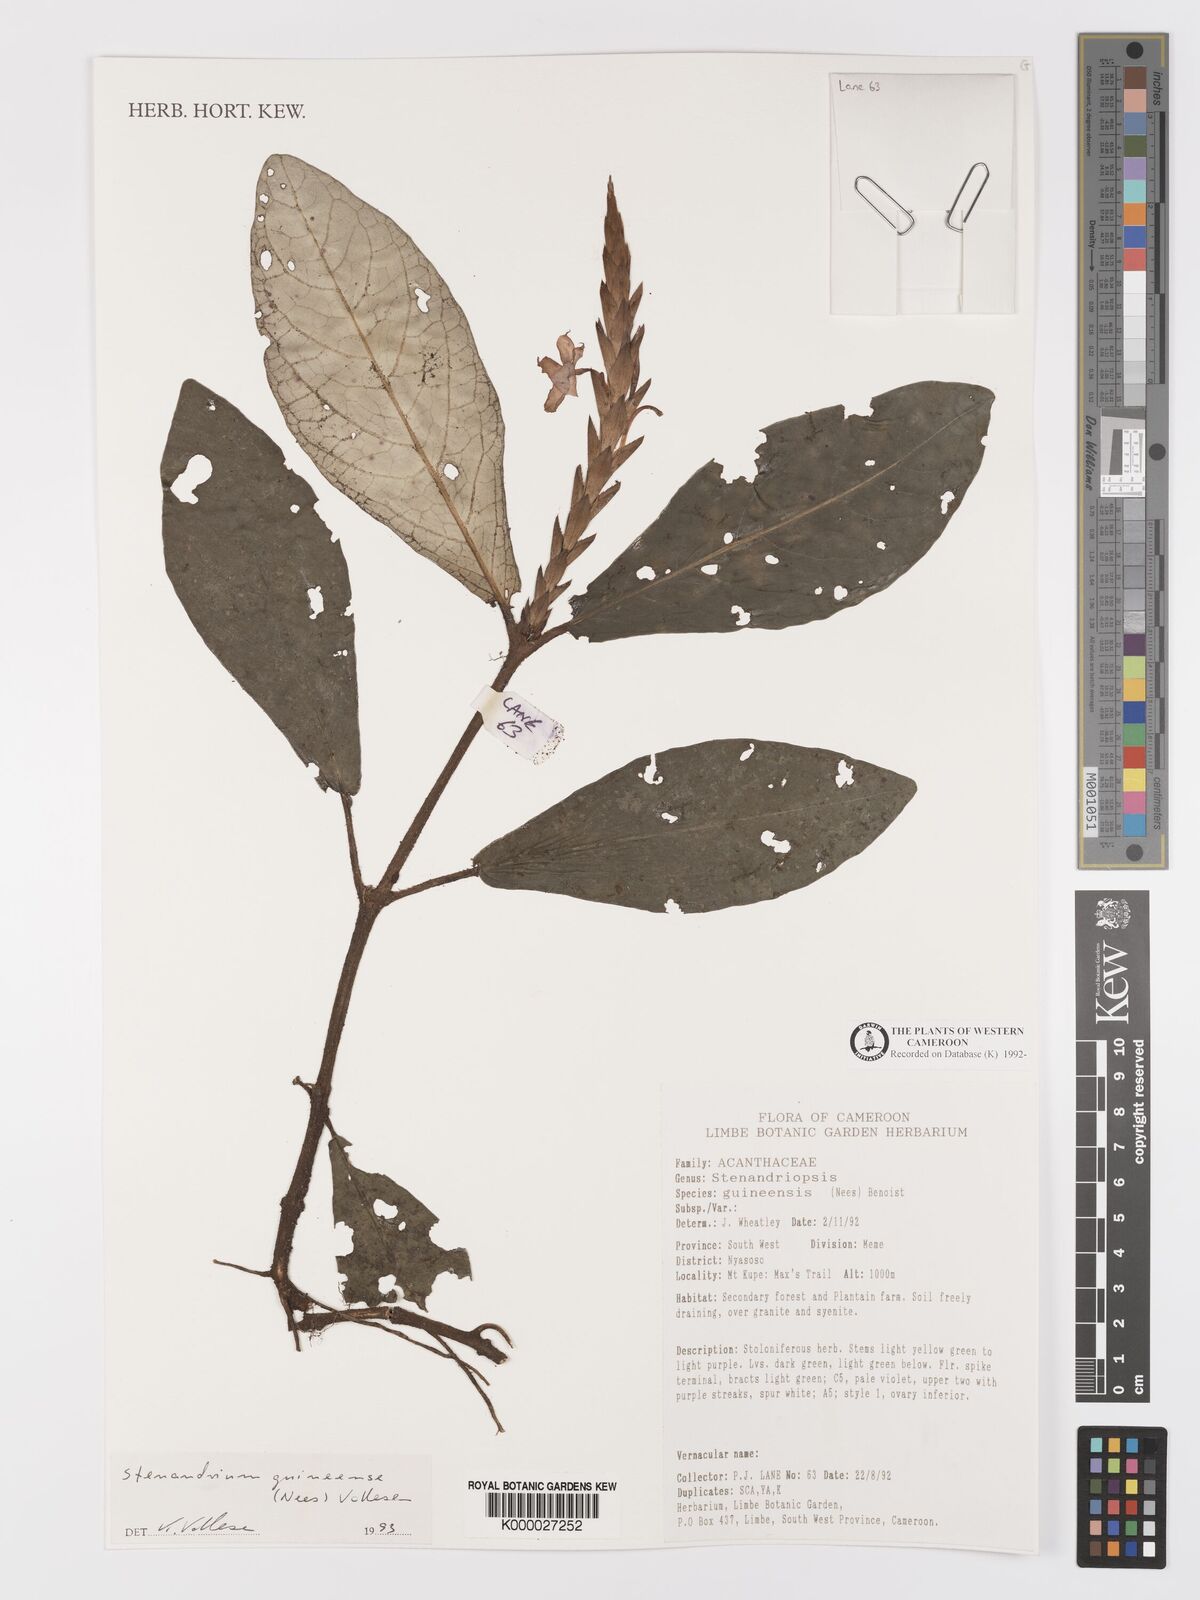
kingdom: Plantae
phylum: Tracheophyta
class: Magnoliopsida
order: Lamiales
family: Acanthaceae
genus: Stenandriopsis
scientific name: Stenandriopsis guineensis
